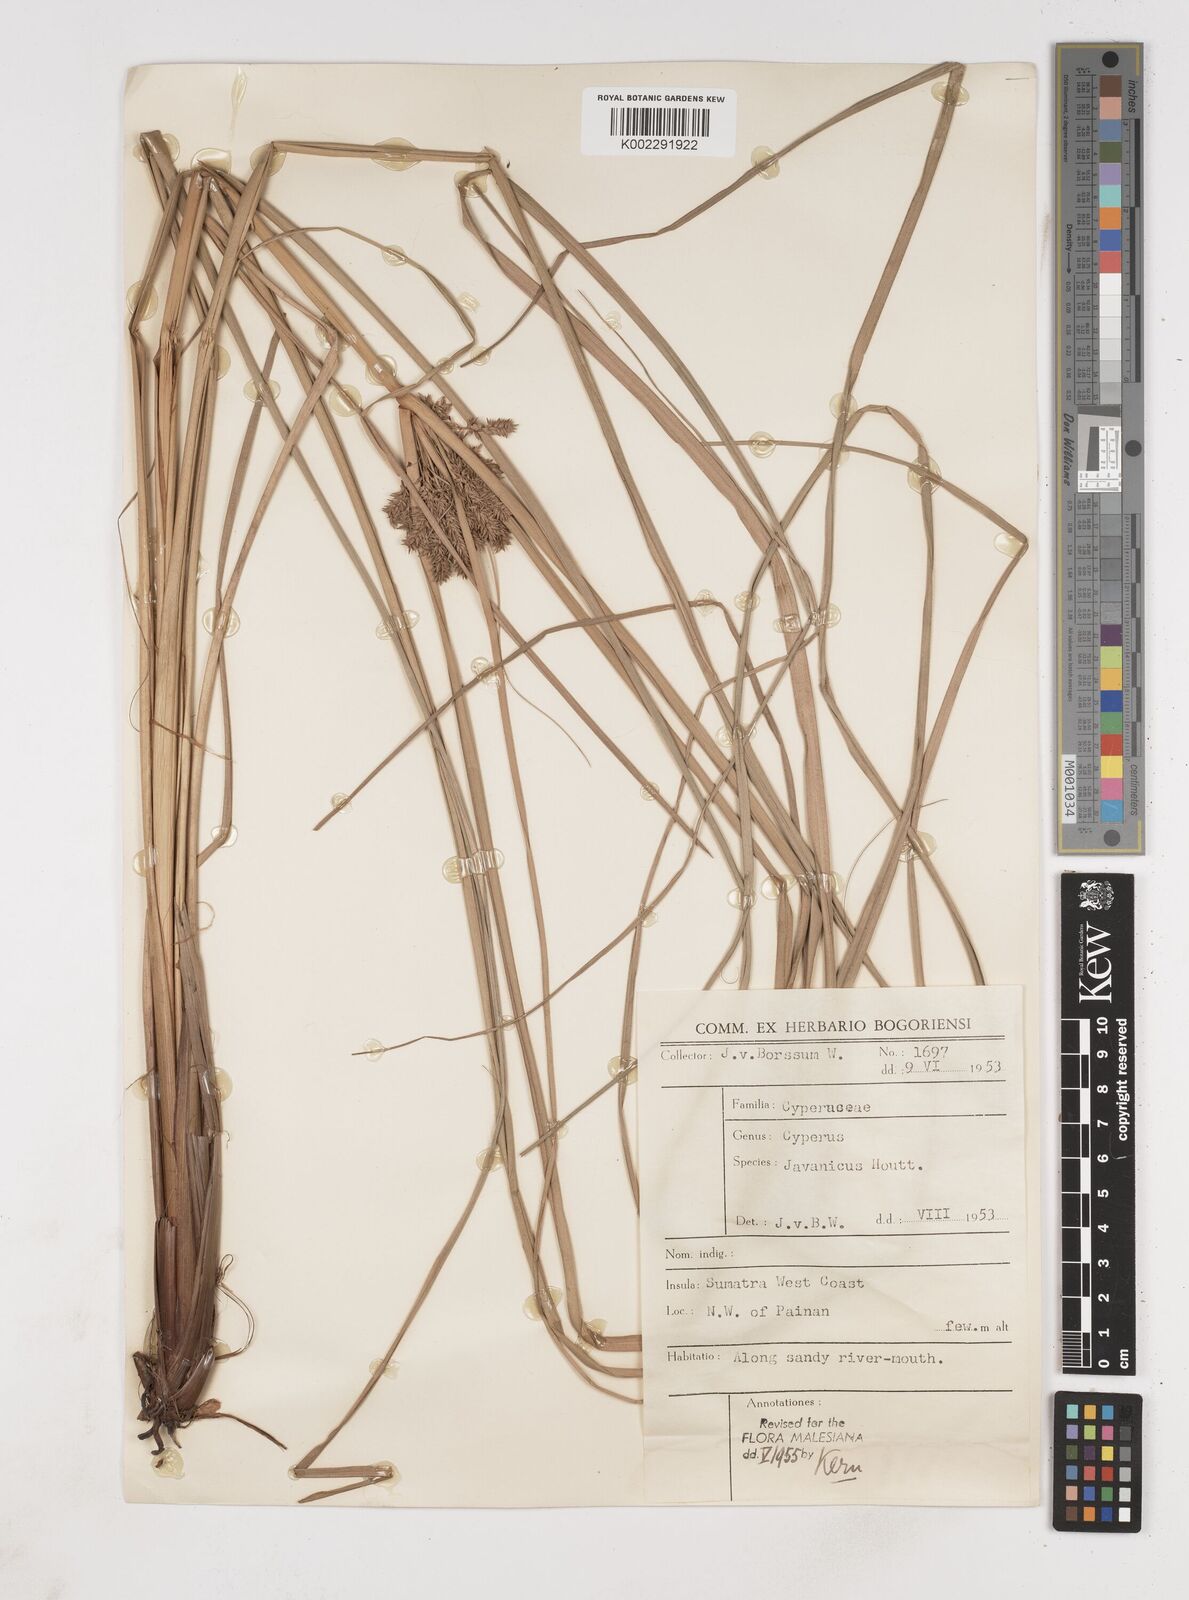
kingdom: Plantae
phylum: Tracheophyta
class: Liliopsida
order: Poales
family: Cyperaceae
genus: Cyperus
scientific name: Cyperus javanicus
